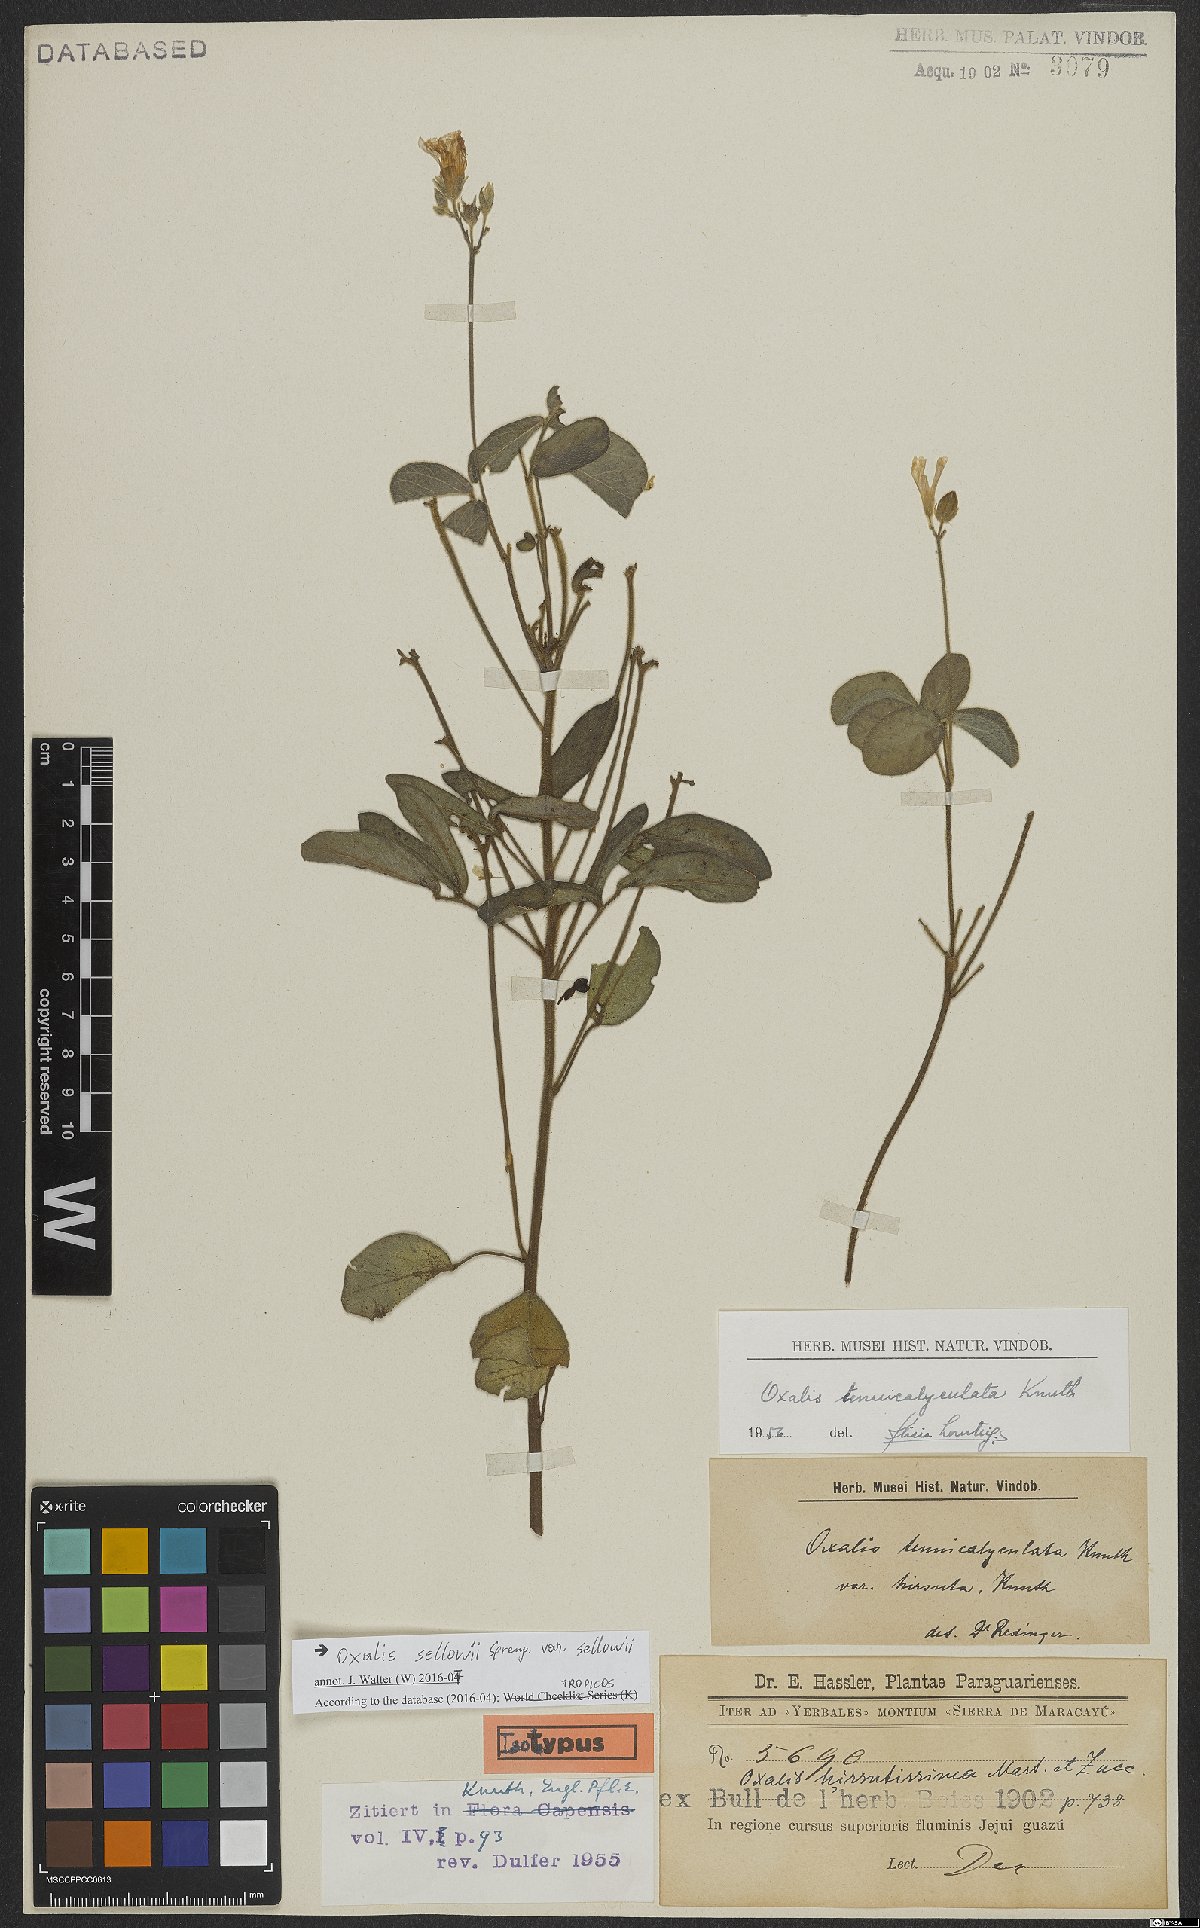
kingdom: Plantae
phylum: Tracheophyta
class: Magnoliopsida
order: Oxalidales
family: Oxalidaceae
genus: Oxalis
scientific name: Oxalis sellowii
